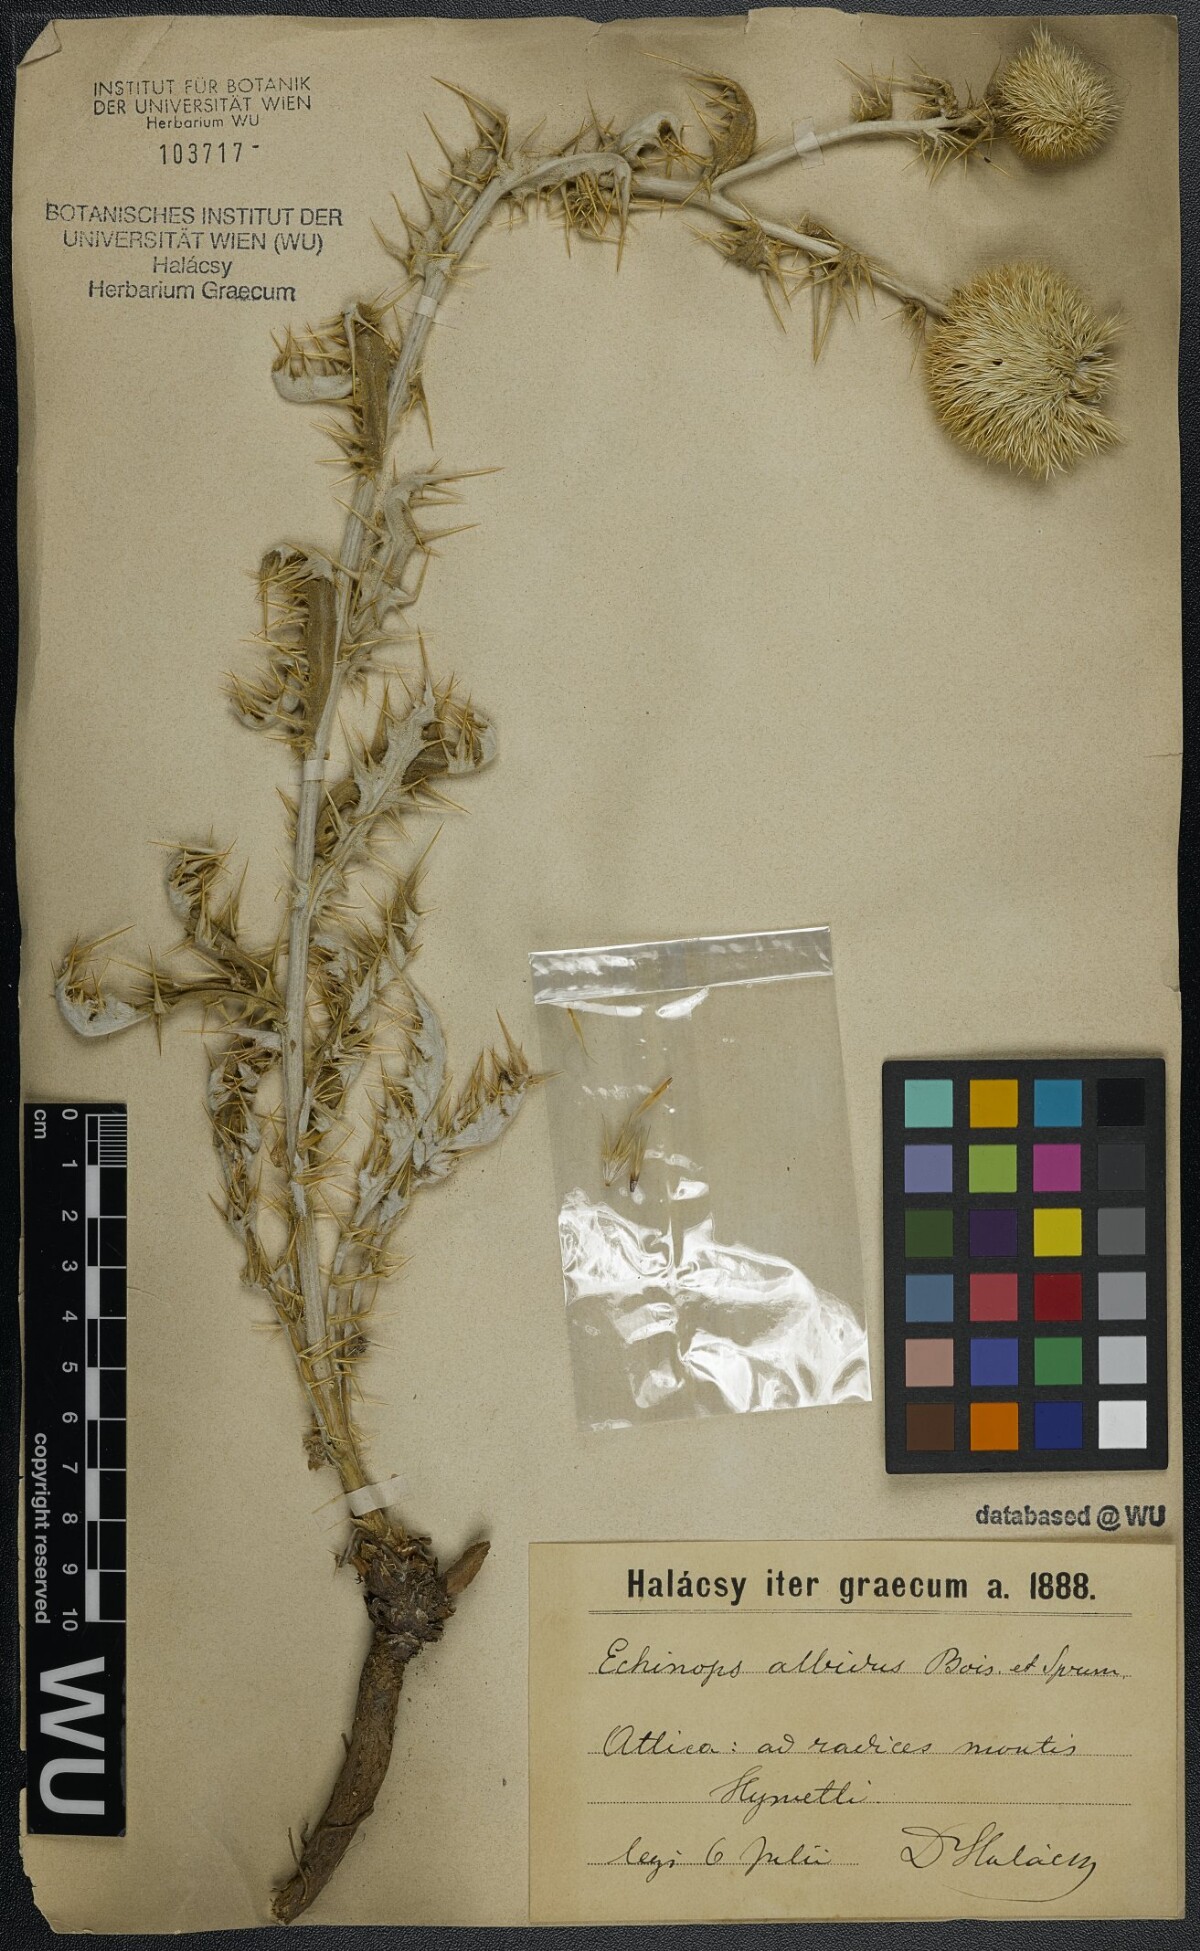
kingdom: Plantae
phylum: Tracheophyta
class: Magnoliopsida
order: Asterales
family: Asteraceae
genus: Echinops
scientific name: Echinops sphaerocephalus
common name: Glandular globe-thistle
